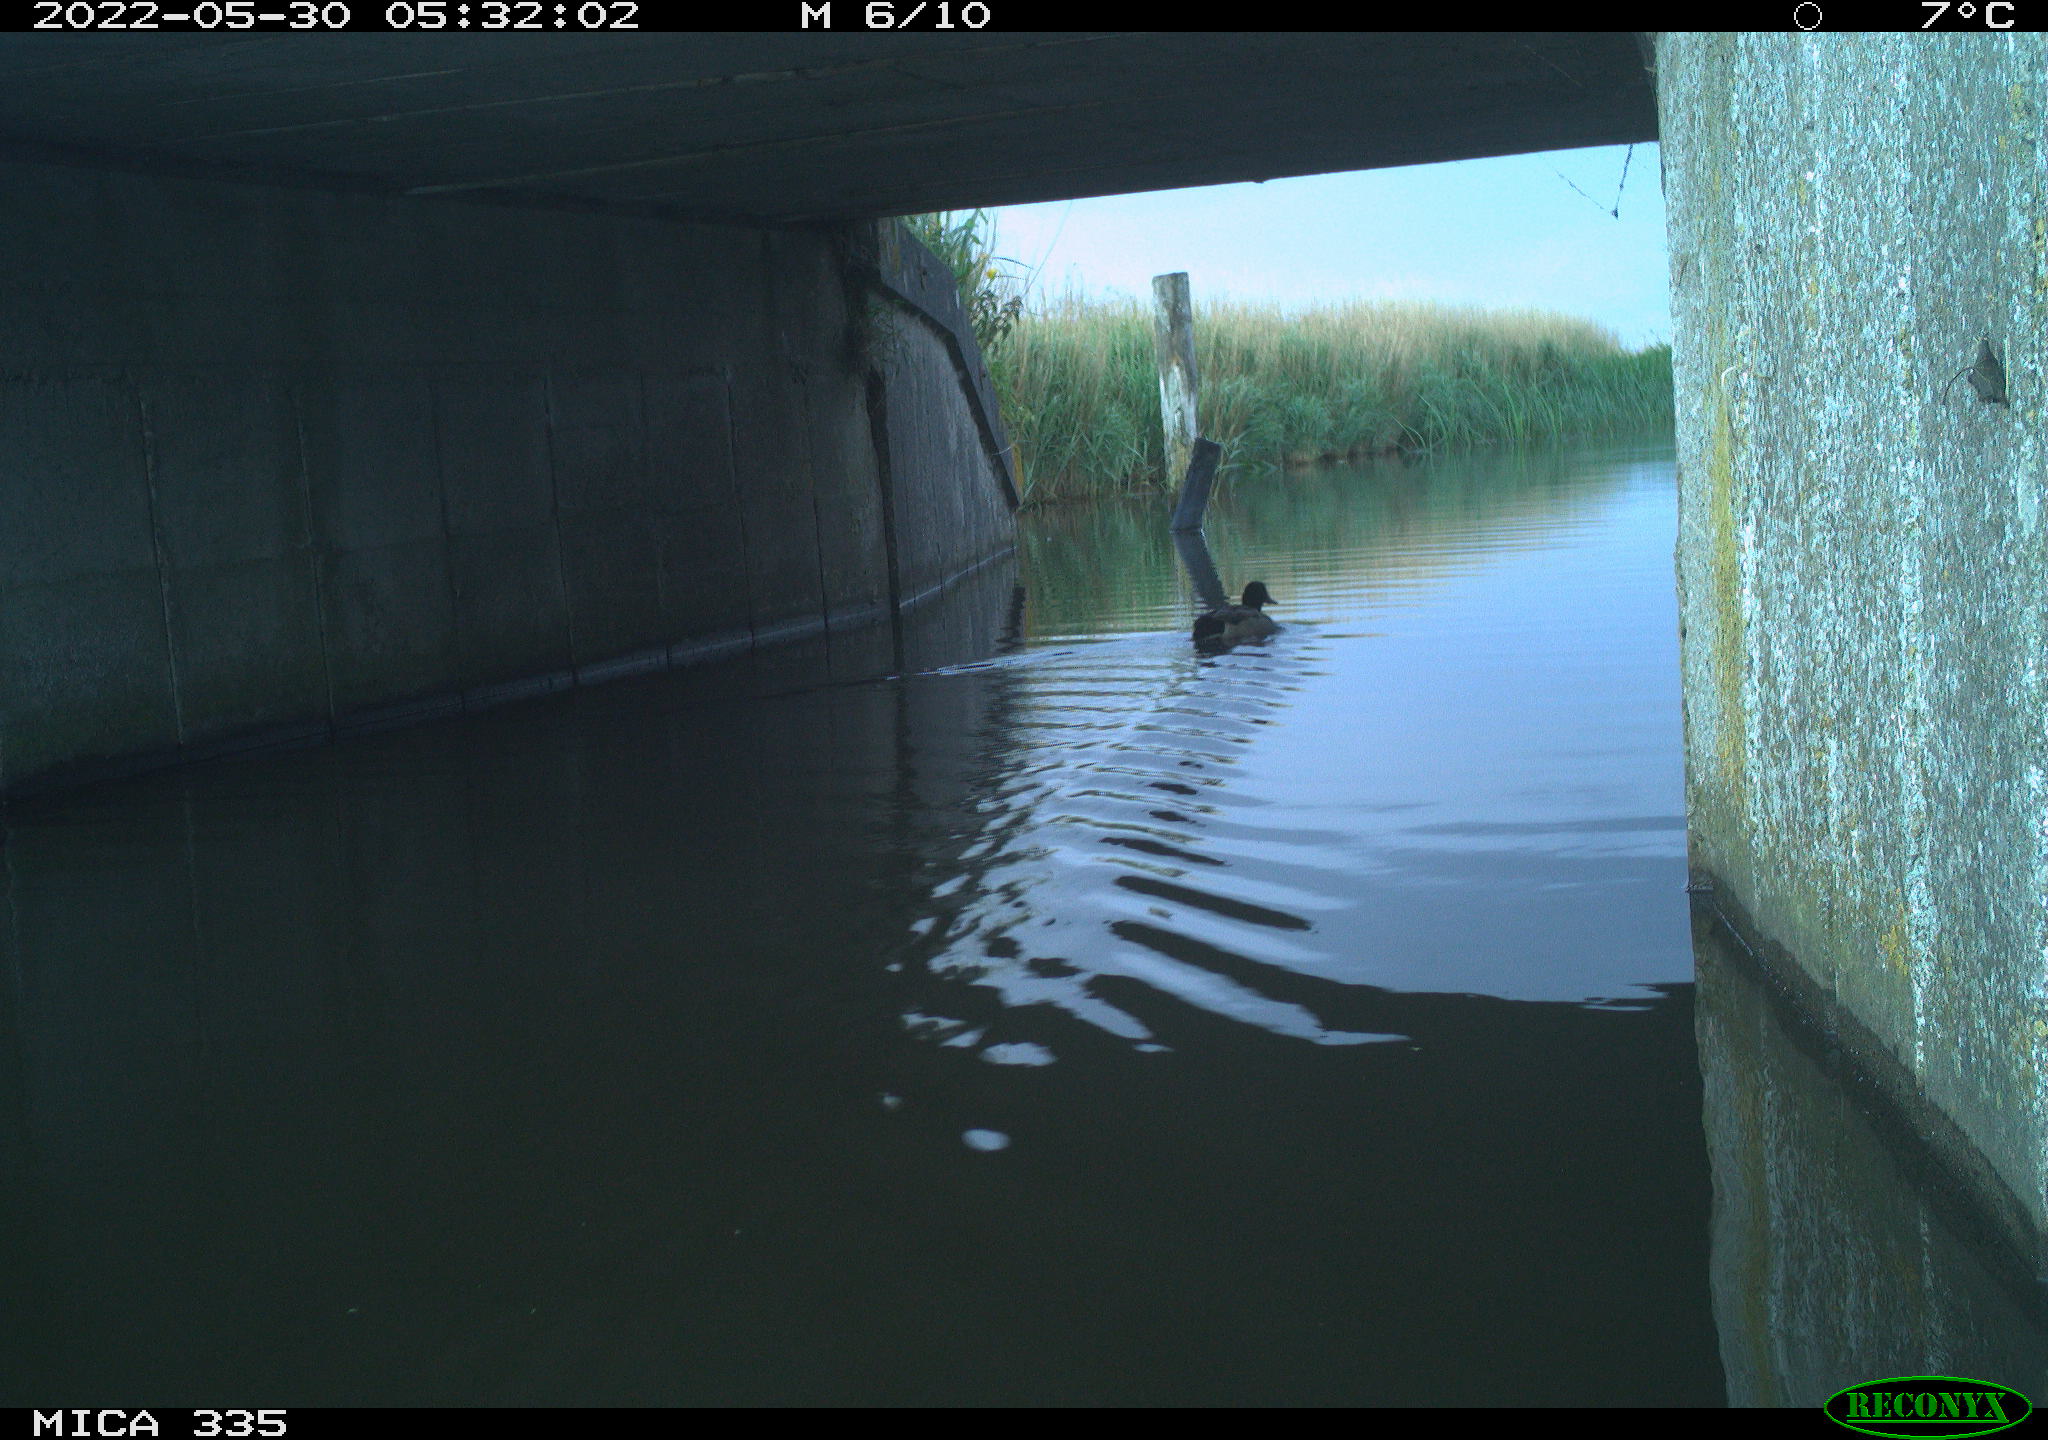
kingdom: Animalia
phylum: Chordata
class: Aves
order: Anseriformes
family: Anatidae
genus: Anas
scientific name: Anas platyrhynchos
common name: Mallard
